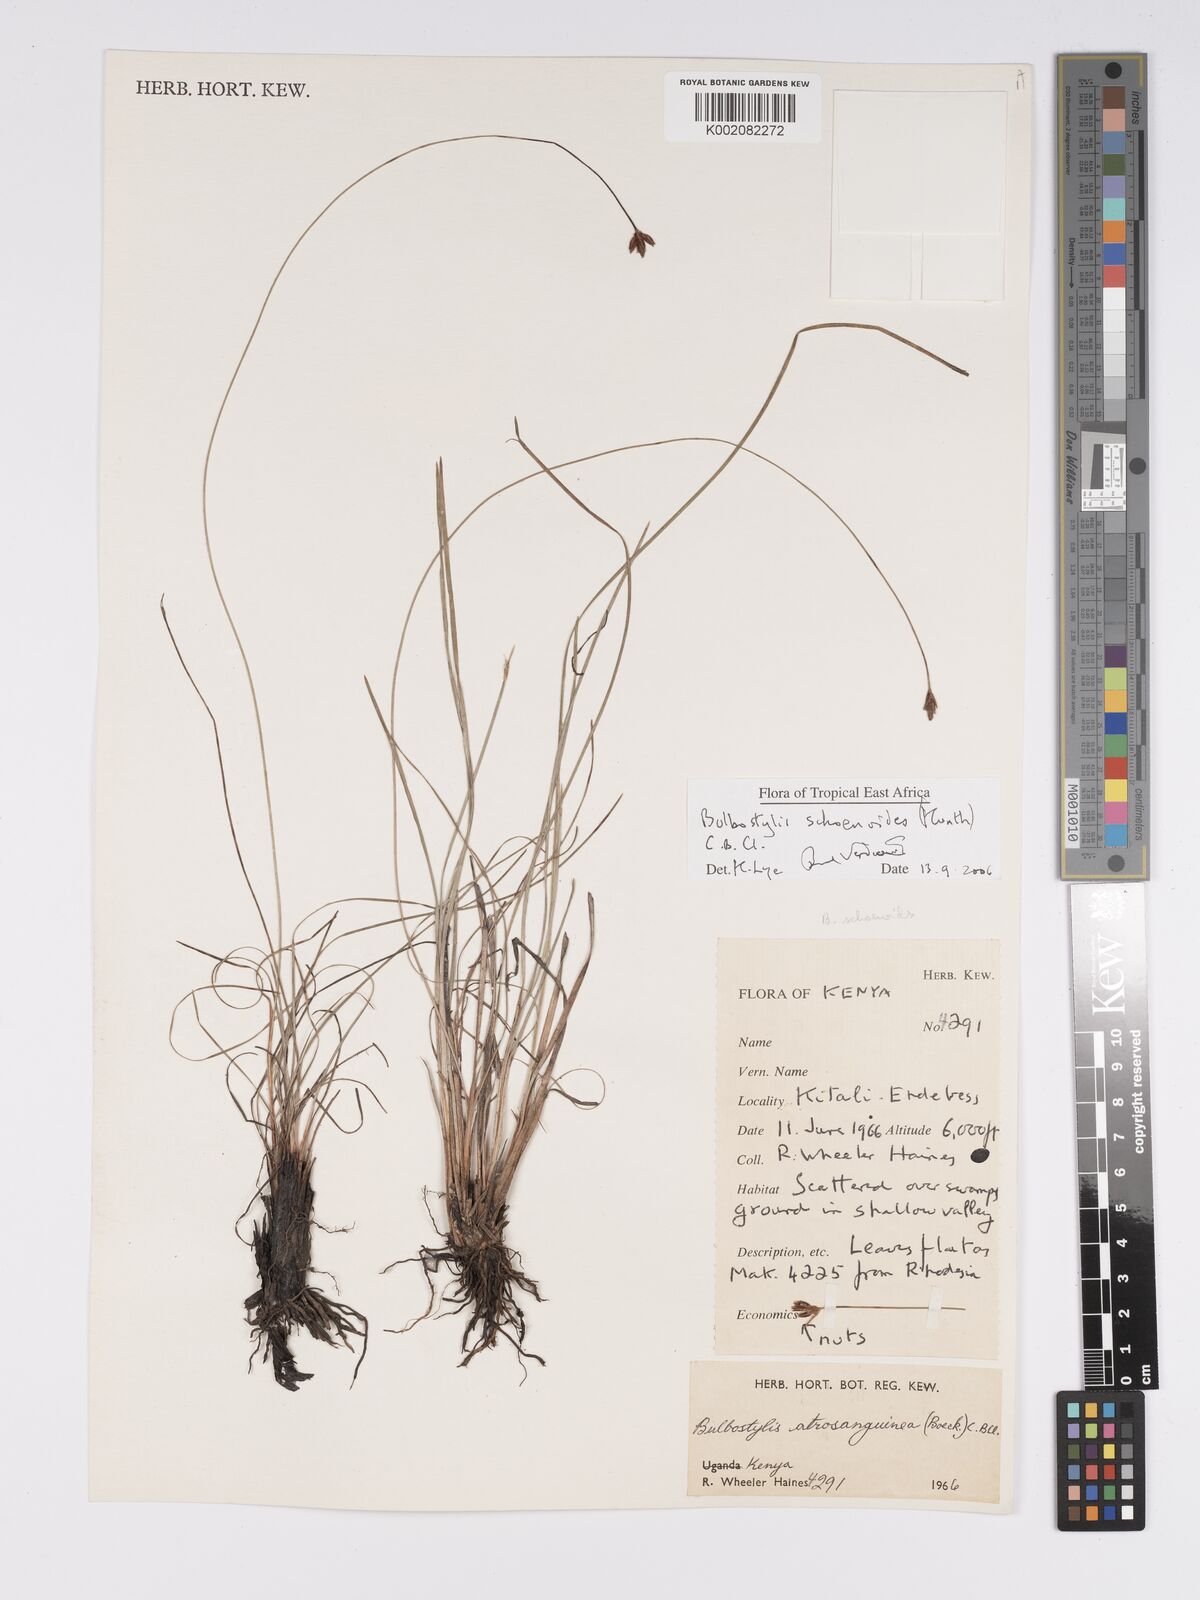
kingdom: Plantae
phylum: Tracheophyta
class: Liliopsida
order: Poales
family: Cyperaceae
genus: Bulbostylis
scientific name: Bulbostylis schoenoides
